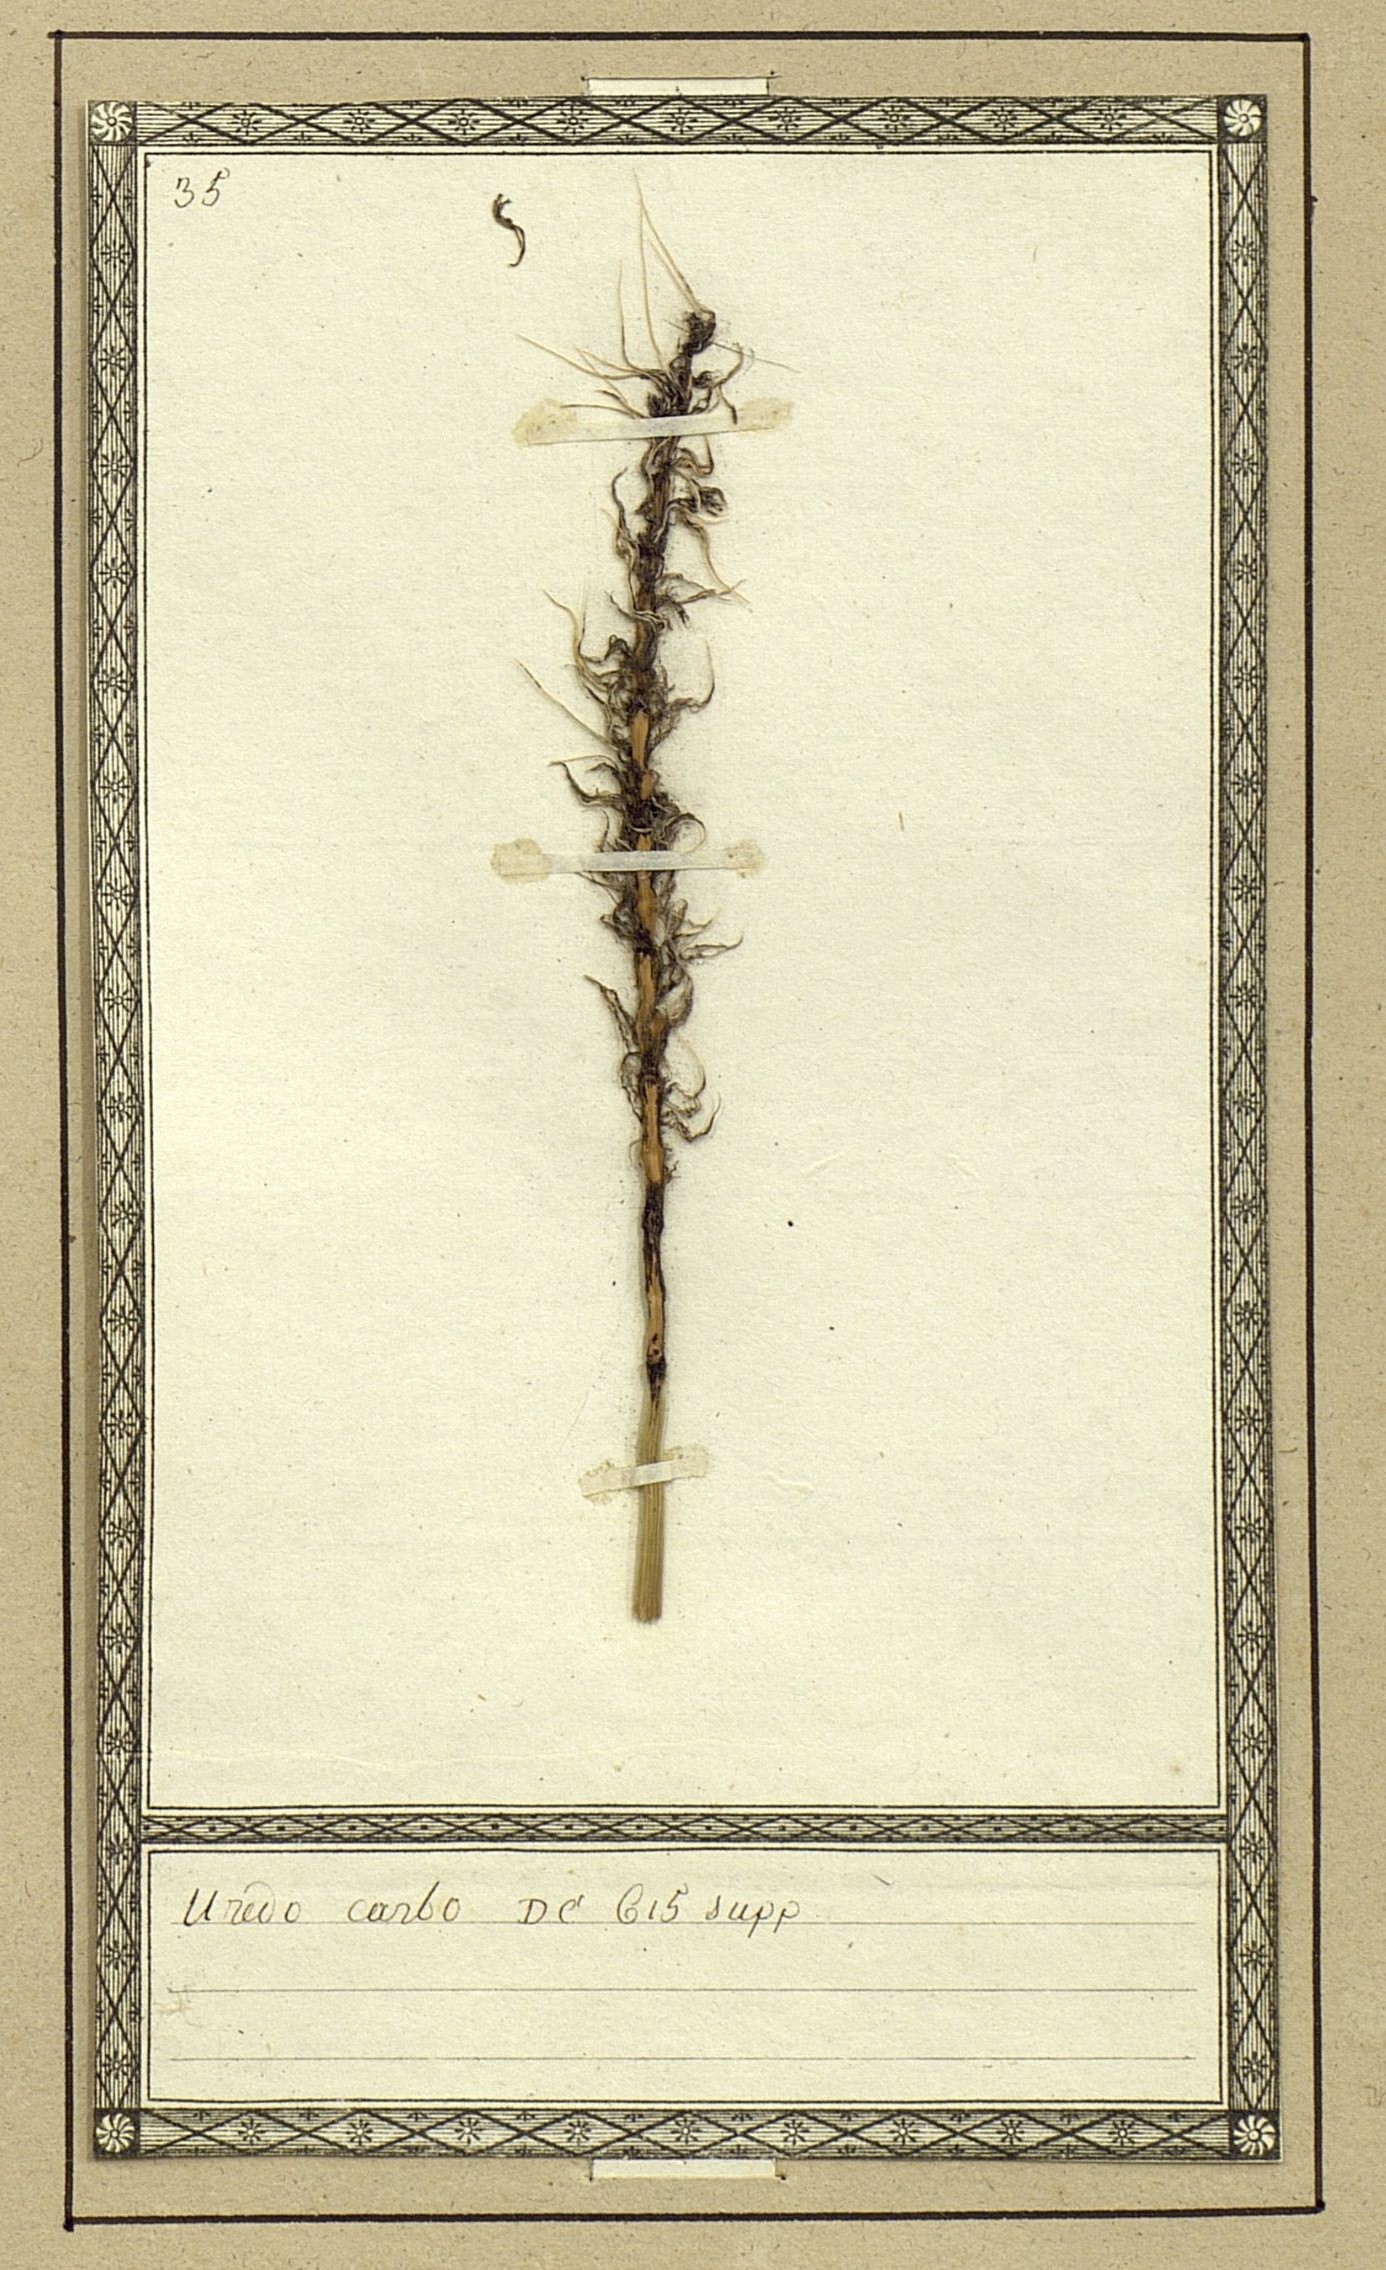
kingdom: Fungi
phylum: Basidiomycota
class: Ustilaginomycetes
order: Ustilaginales
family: Ustilaginaceae
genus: Ustilago
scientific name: Ustilago hordei
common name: Covered smut of barley & oats
